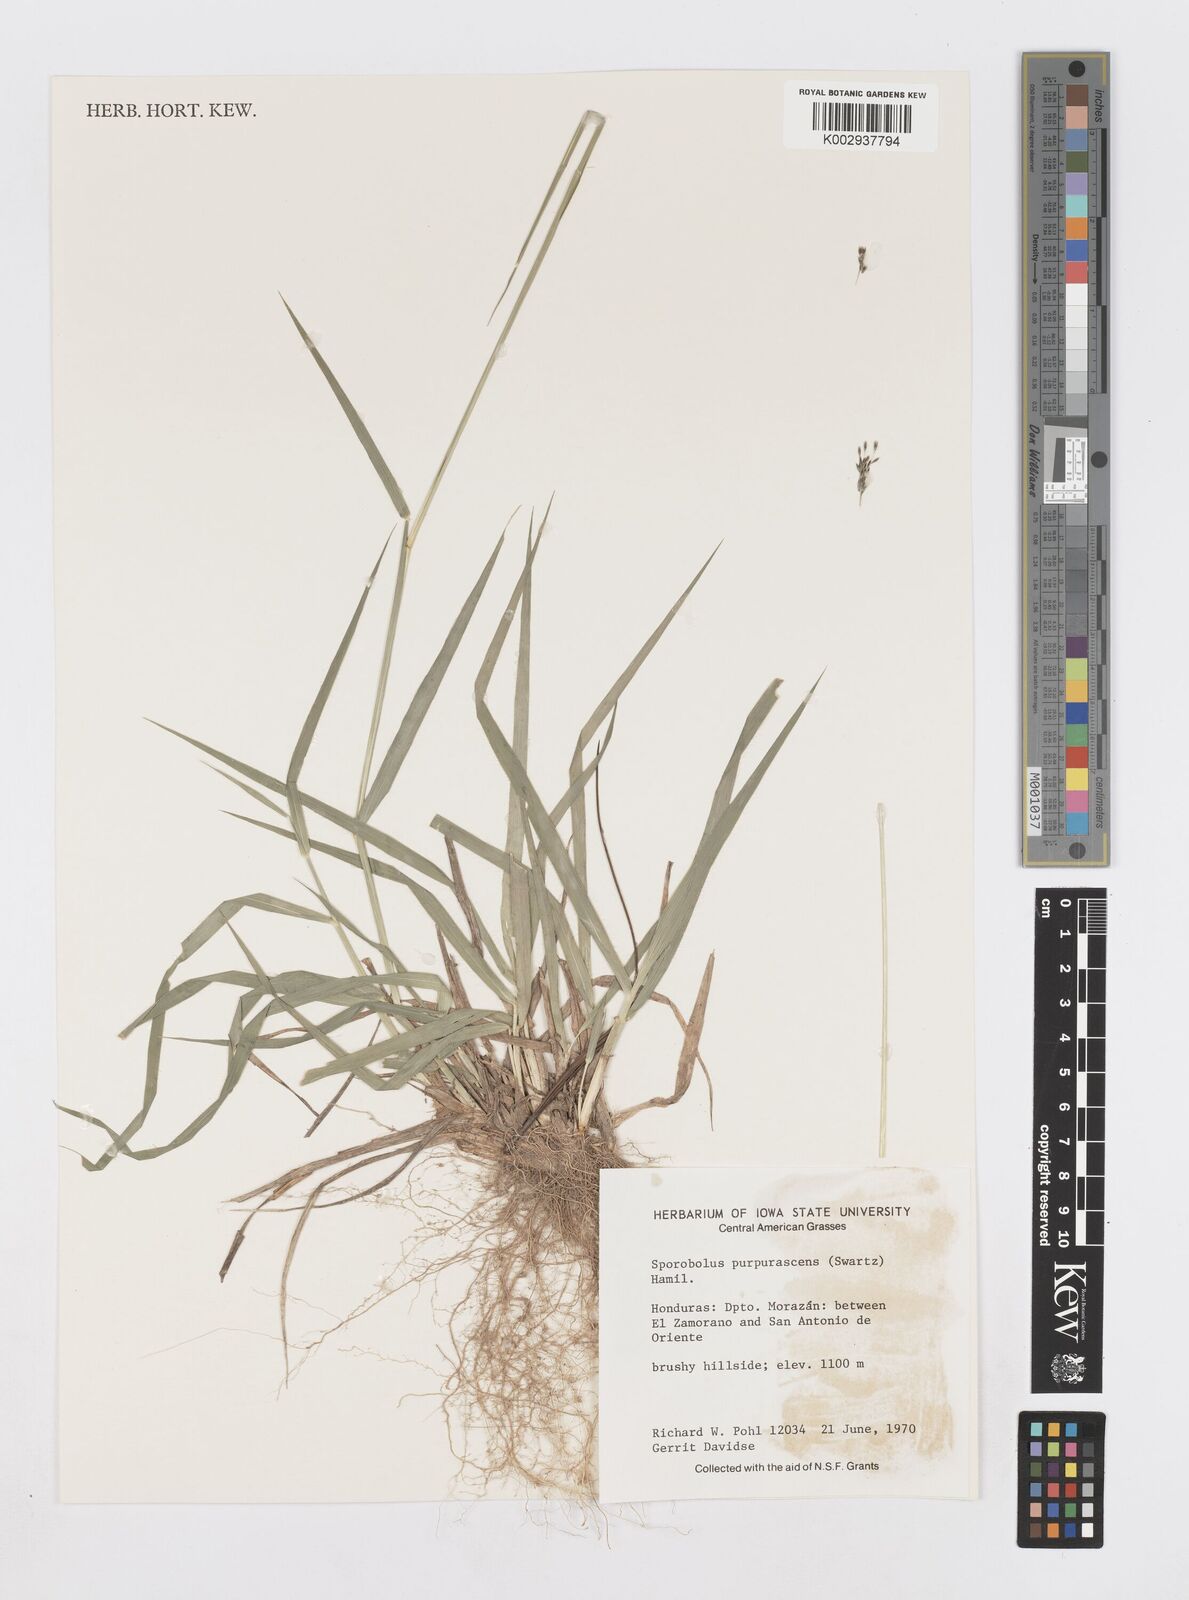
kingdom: Plantae
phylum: Tracheophyta
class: Liliopsida
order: Poales
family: Poaceae
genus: Sporobolus
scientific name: Sporobolus purpurascens
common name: Purple dropseed
